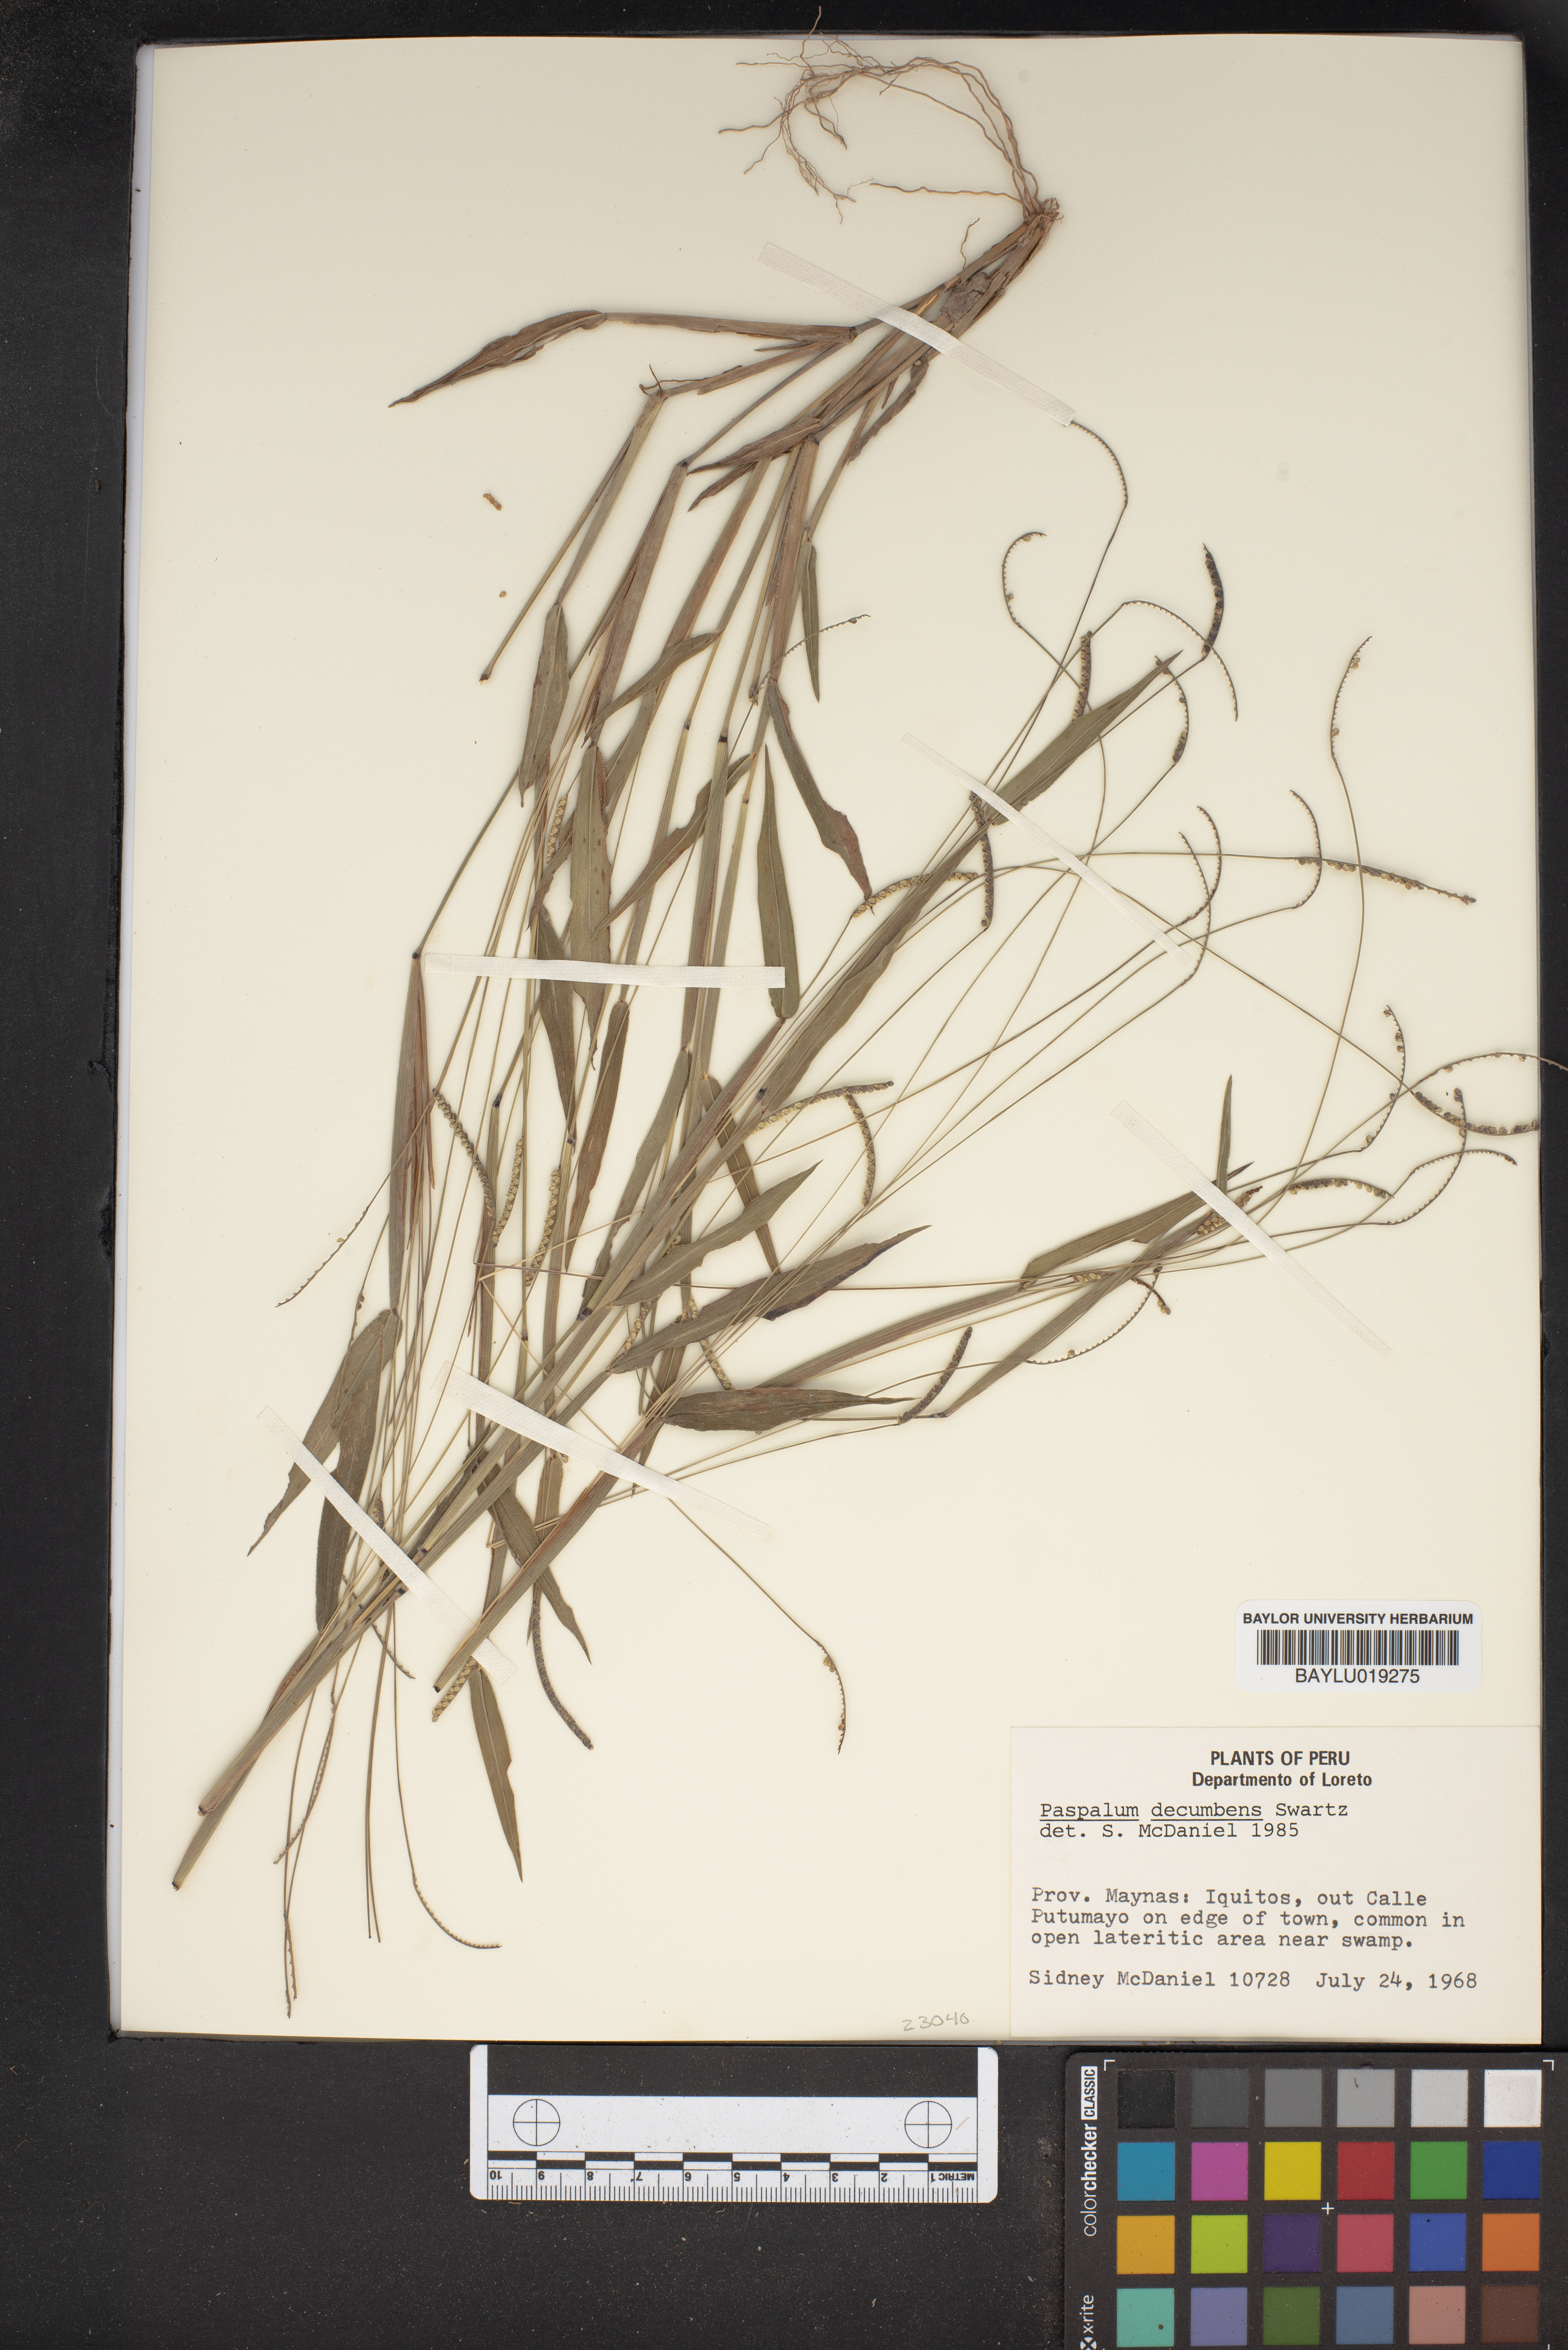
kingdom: Plantae
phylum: Tracheophyta
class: Liliopsida
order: Poales
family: Poaceae
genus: Paspalum
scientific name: Paspalum decumbens
